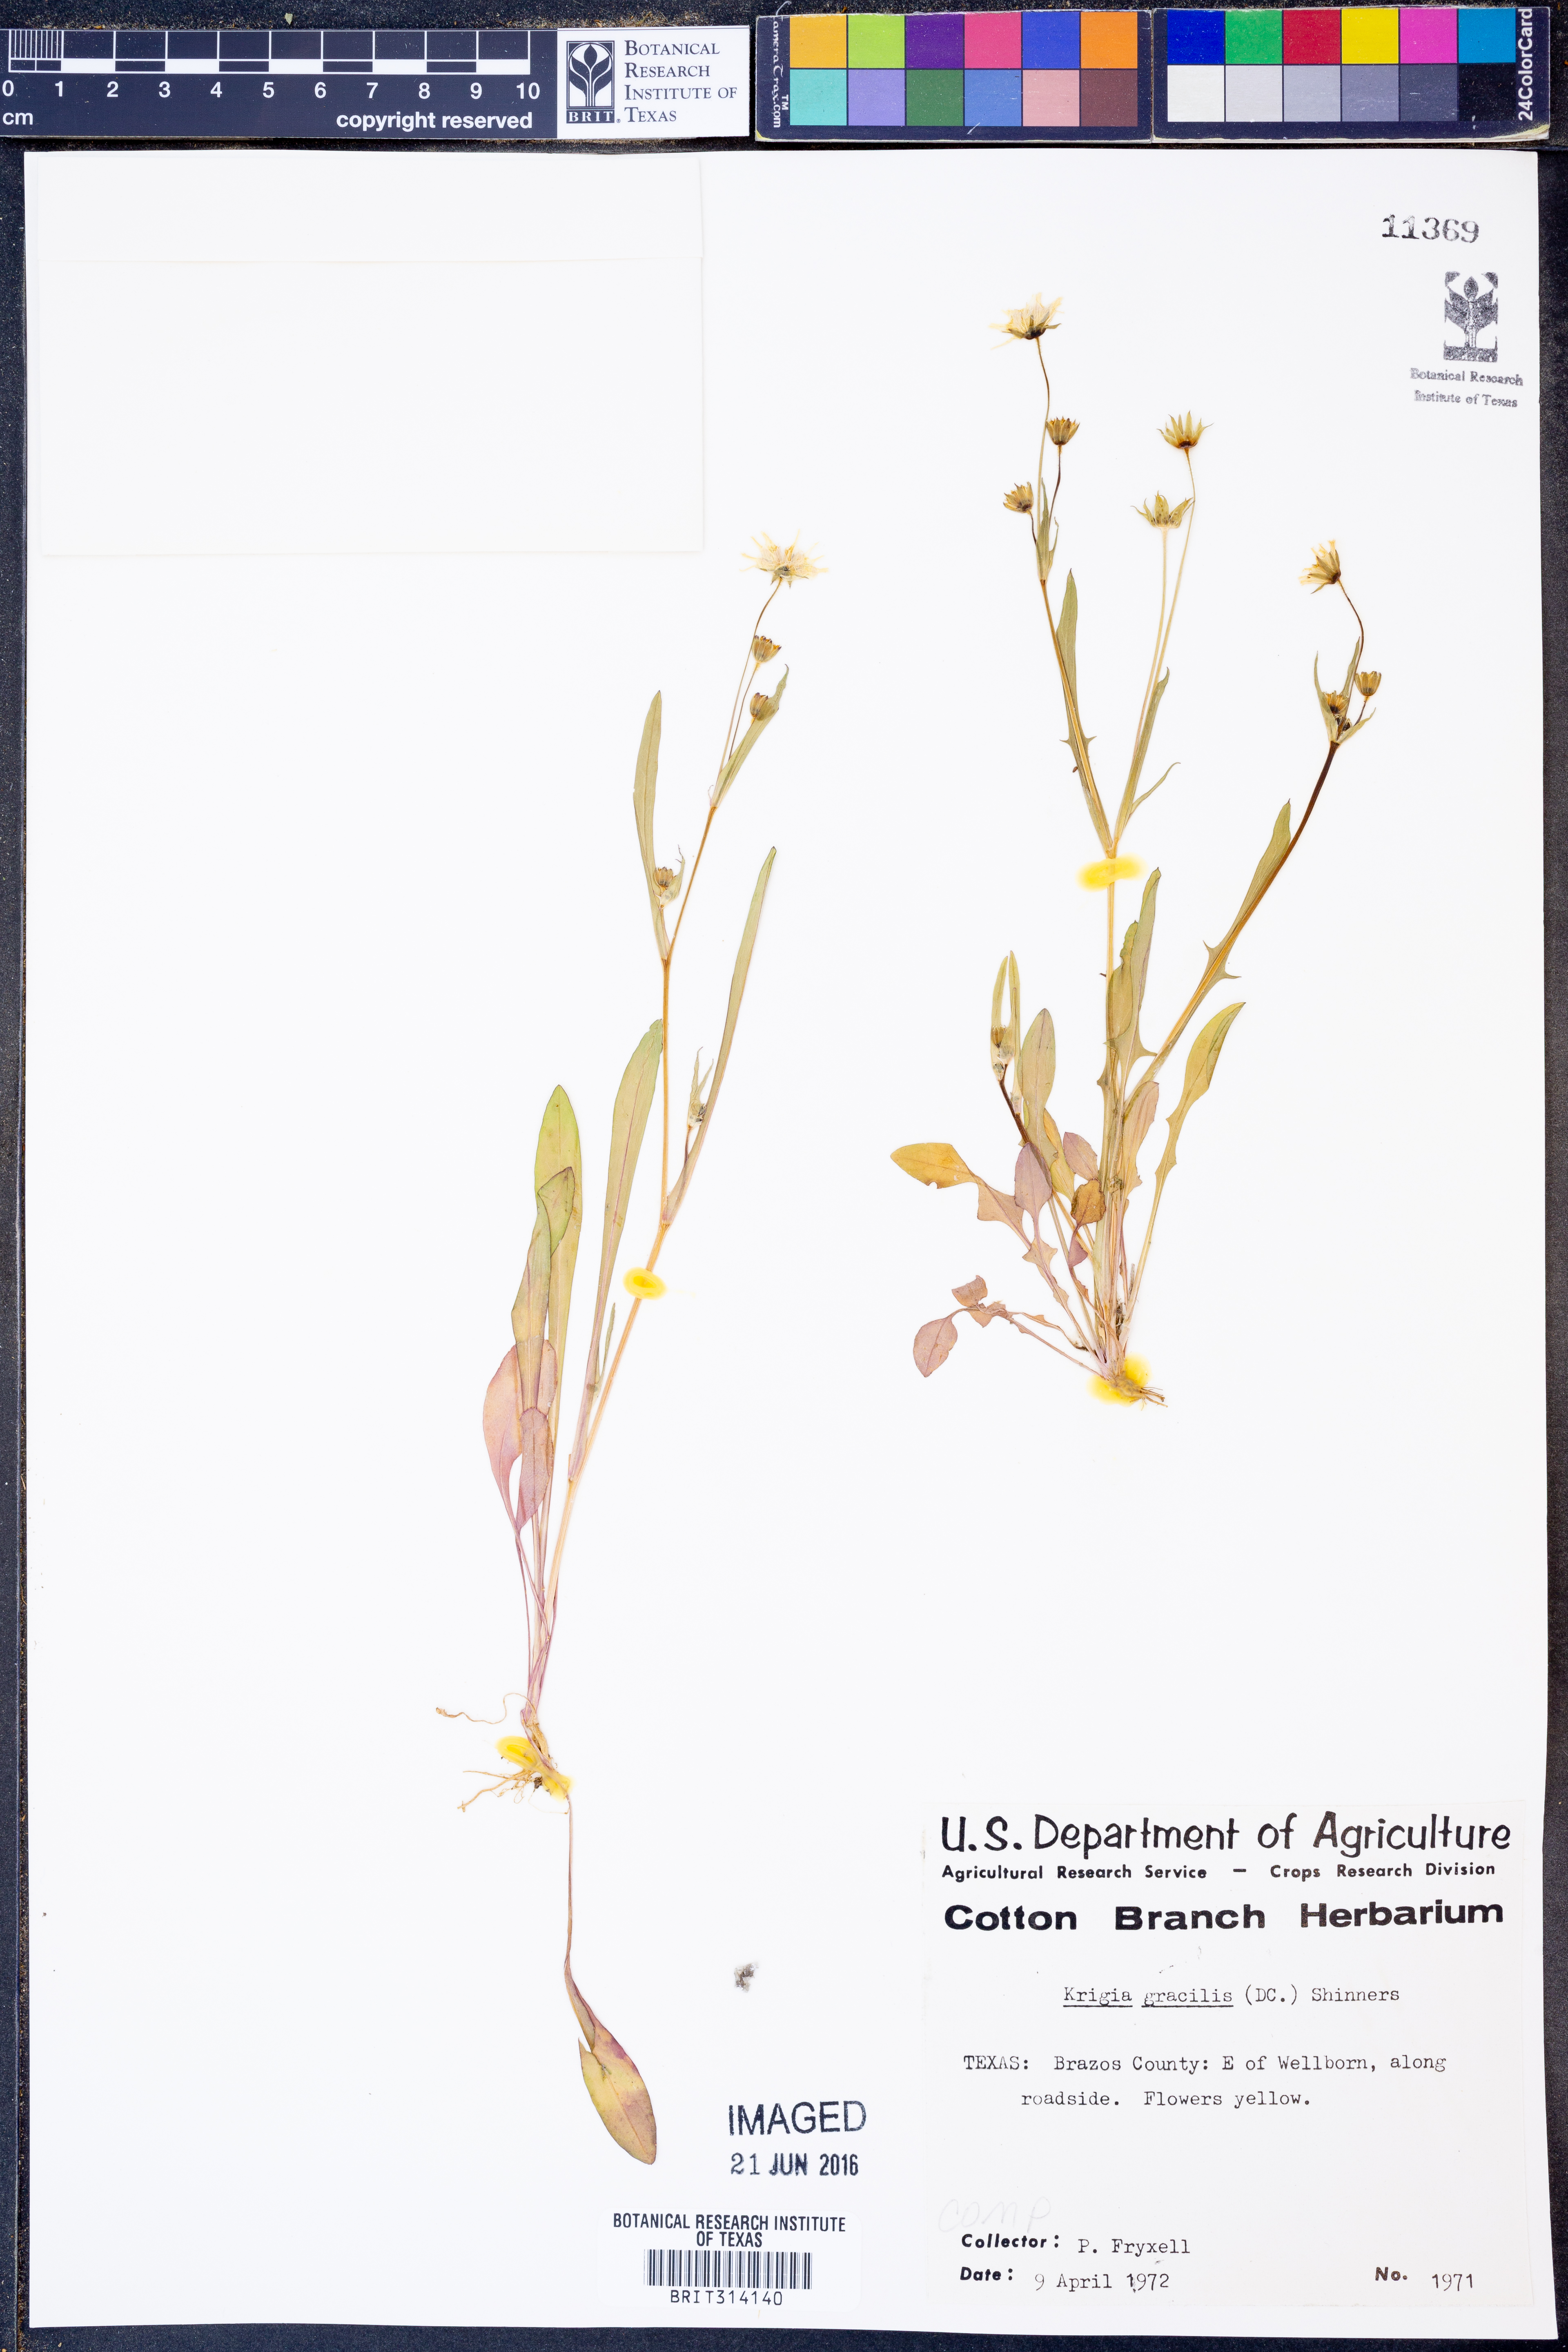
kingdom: Plantae
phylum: Tracheophyta
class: Magnoliopsida
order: Asterales
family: Asteraceae
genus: Krigia
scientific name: Krigia cespitosa
